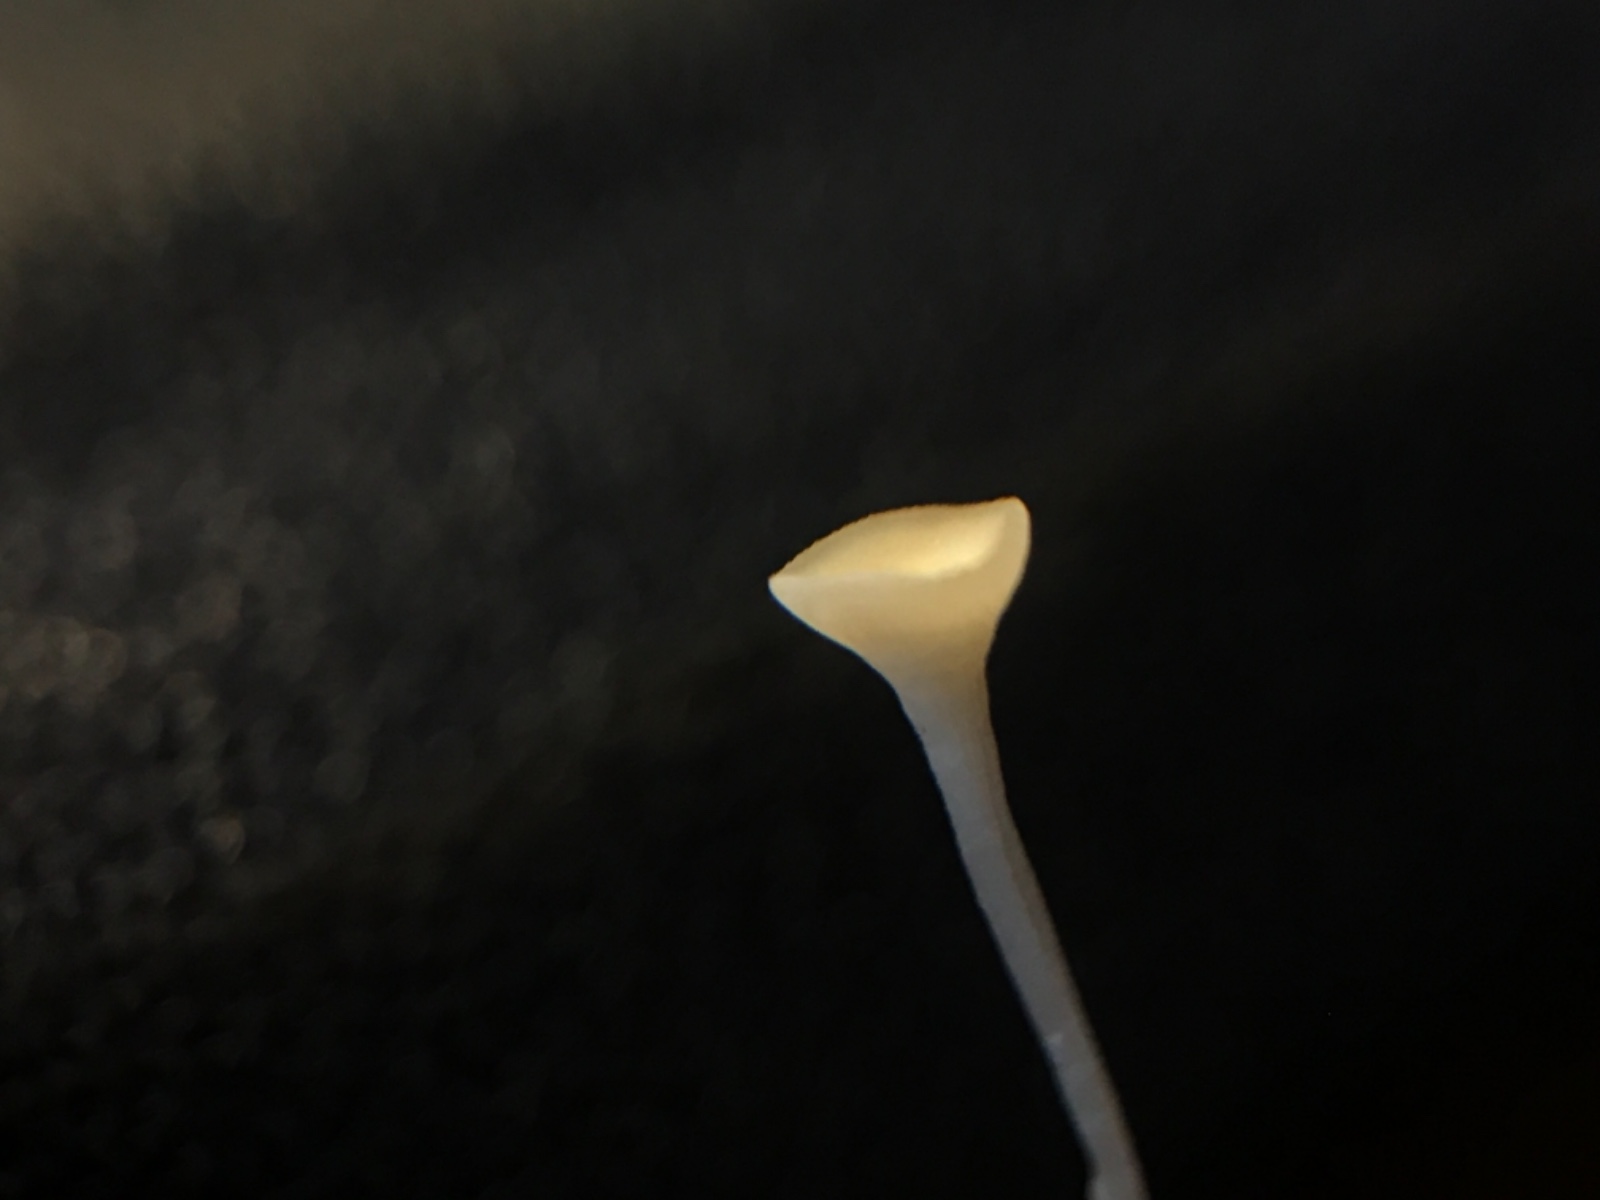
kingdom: Fungi
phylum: Ascomycota
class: Leotiomycetes
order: Helotiales
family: Helotiaceae
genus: Hymenoscyphus
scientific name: Hymenoscyphus
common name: stilkskive
